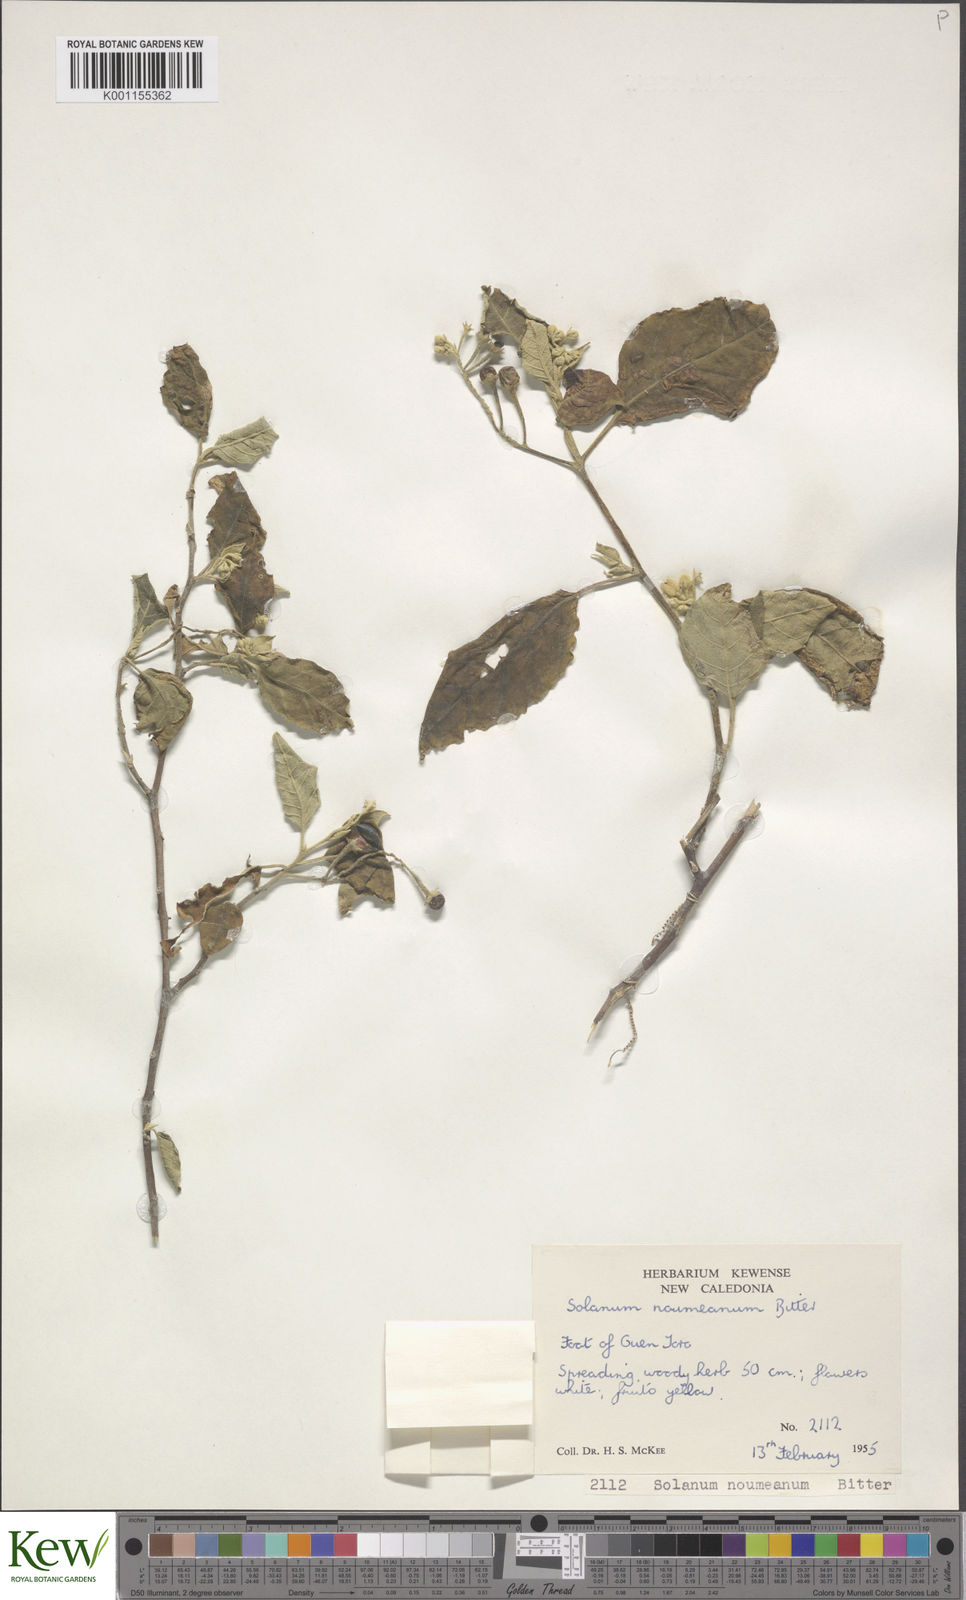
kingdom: Plantae
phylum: Tracheophyta
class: Magnoliopsida
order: Solanales
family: Solanaceae
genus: Solanum
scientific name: Solanum austrocaledonicum
